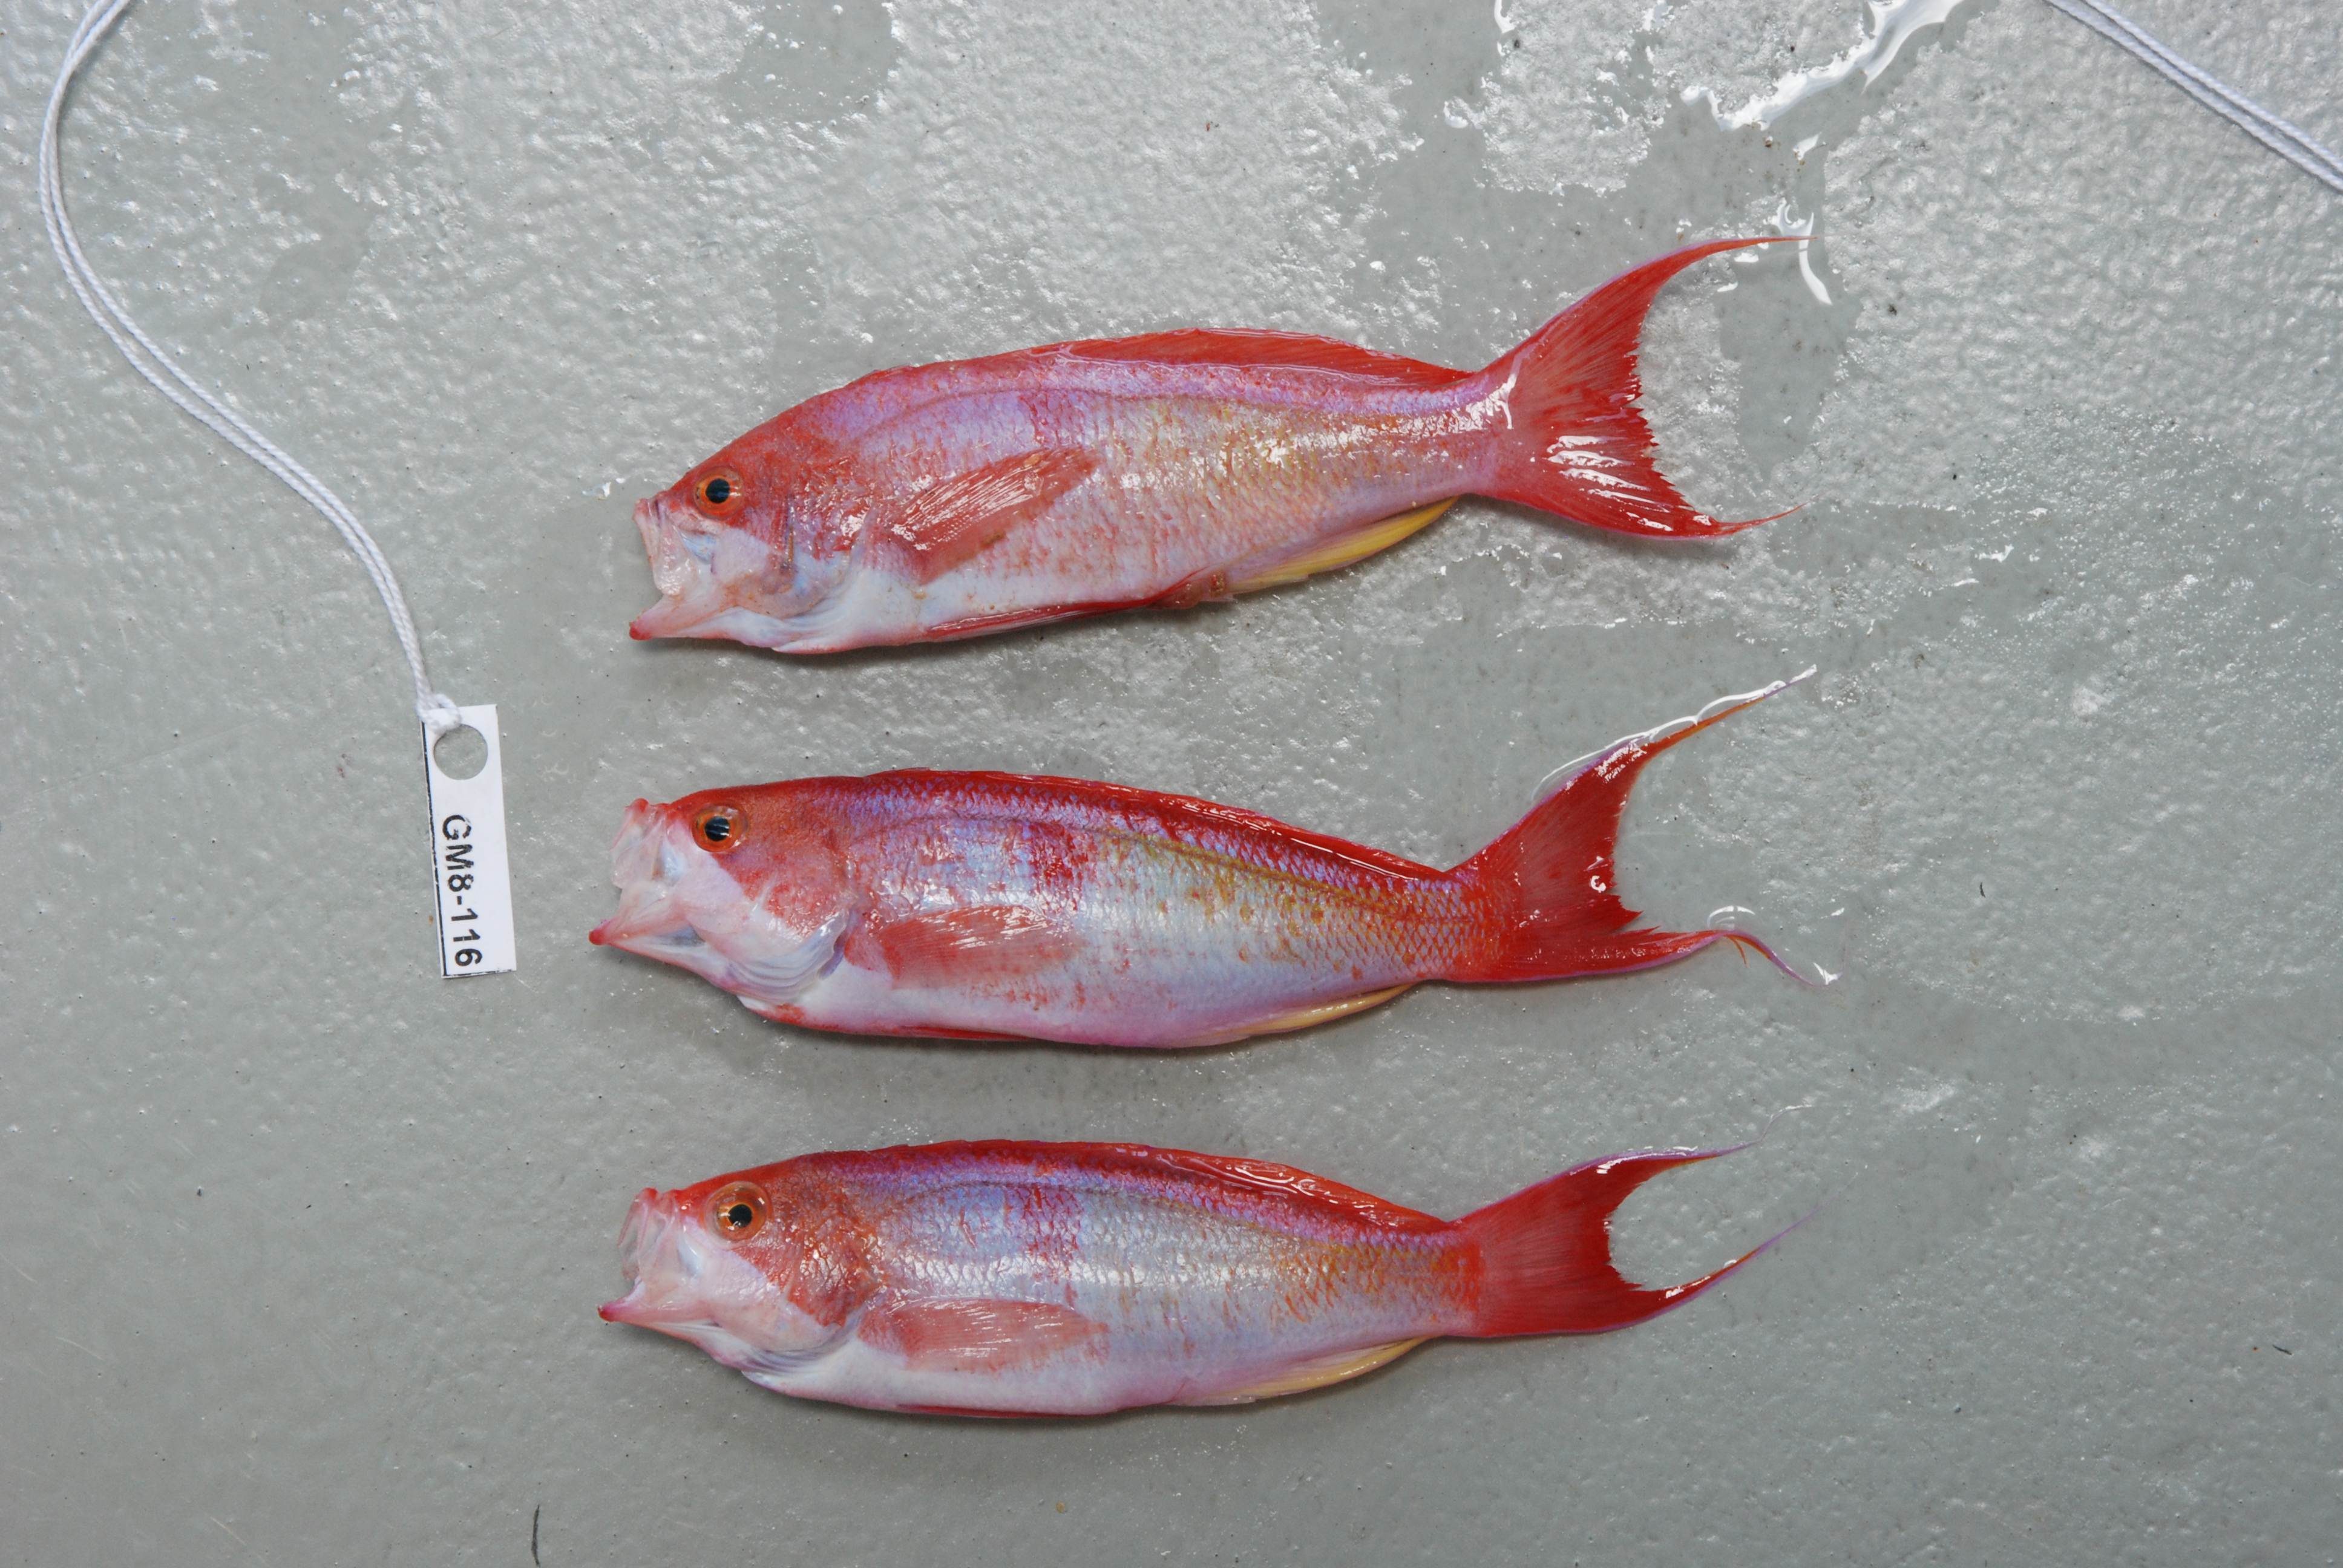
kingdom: Animalia
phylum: Chordata
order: Perciformes
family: Serranidae
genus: Pseudanthias
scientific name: Pseudanthias cooperi
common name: Red basslet
